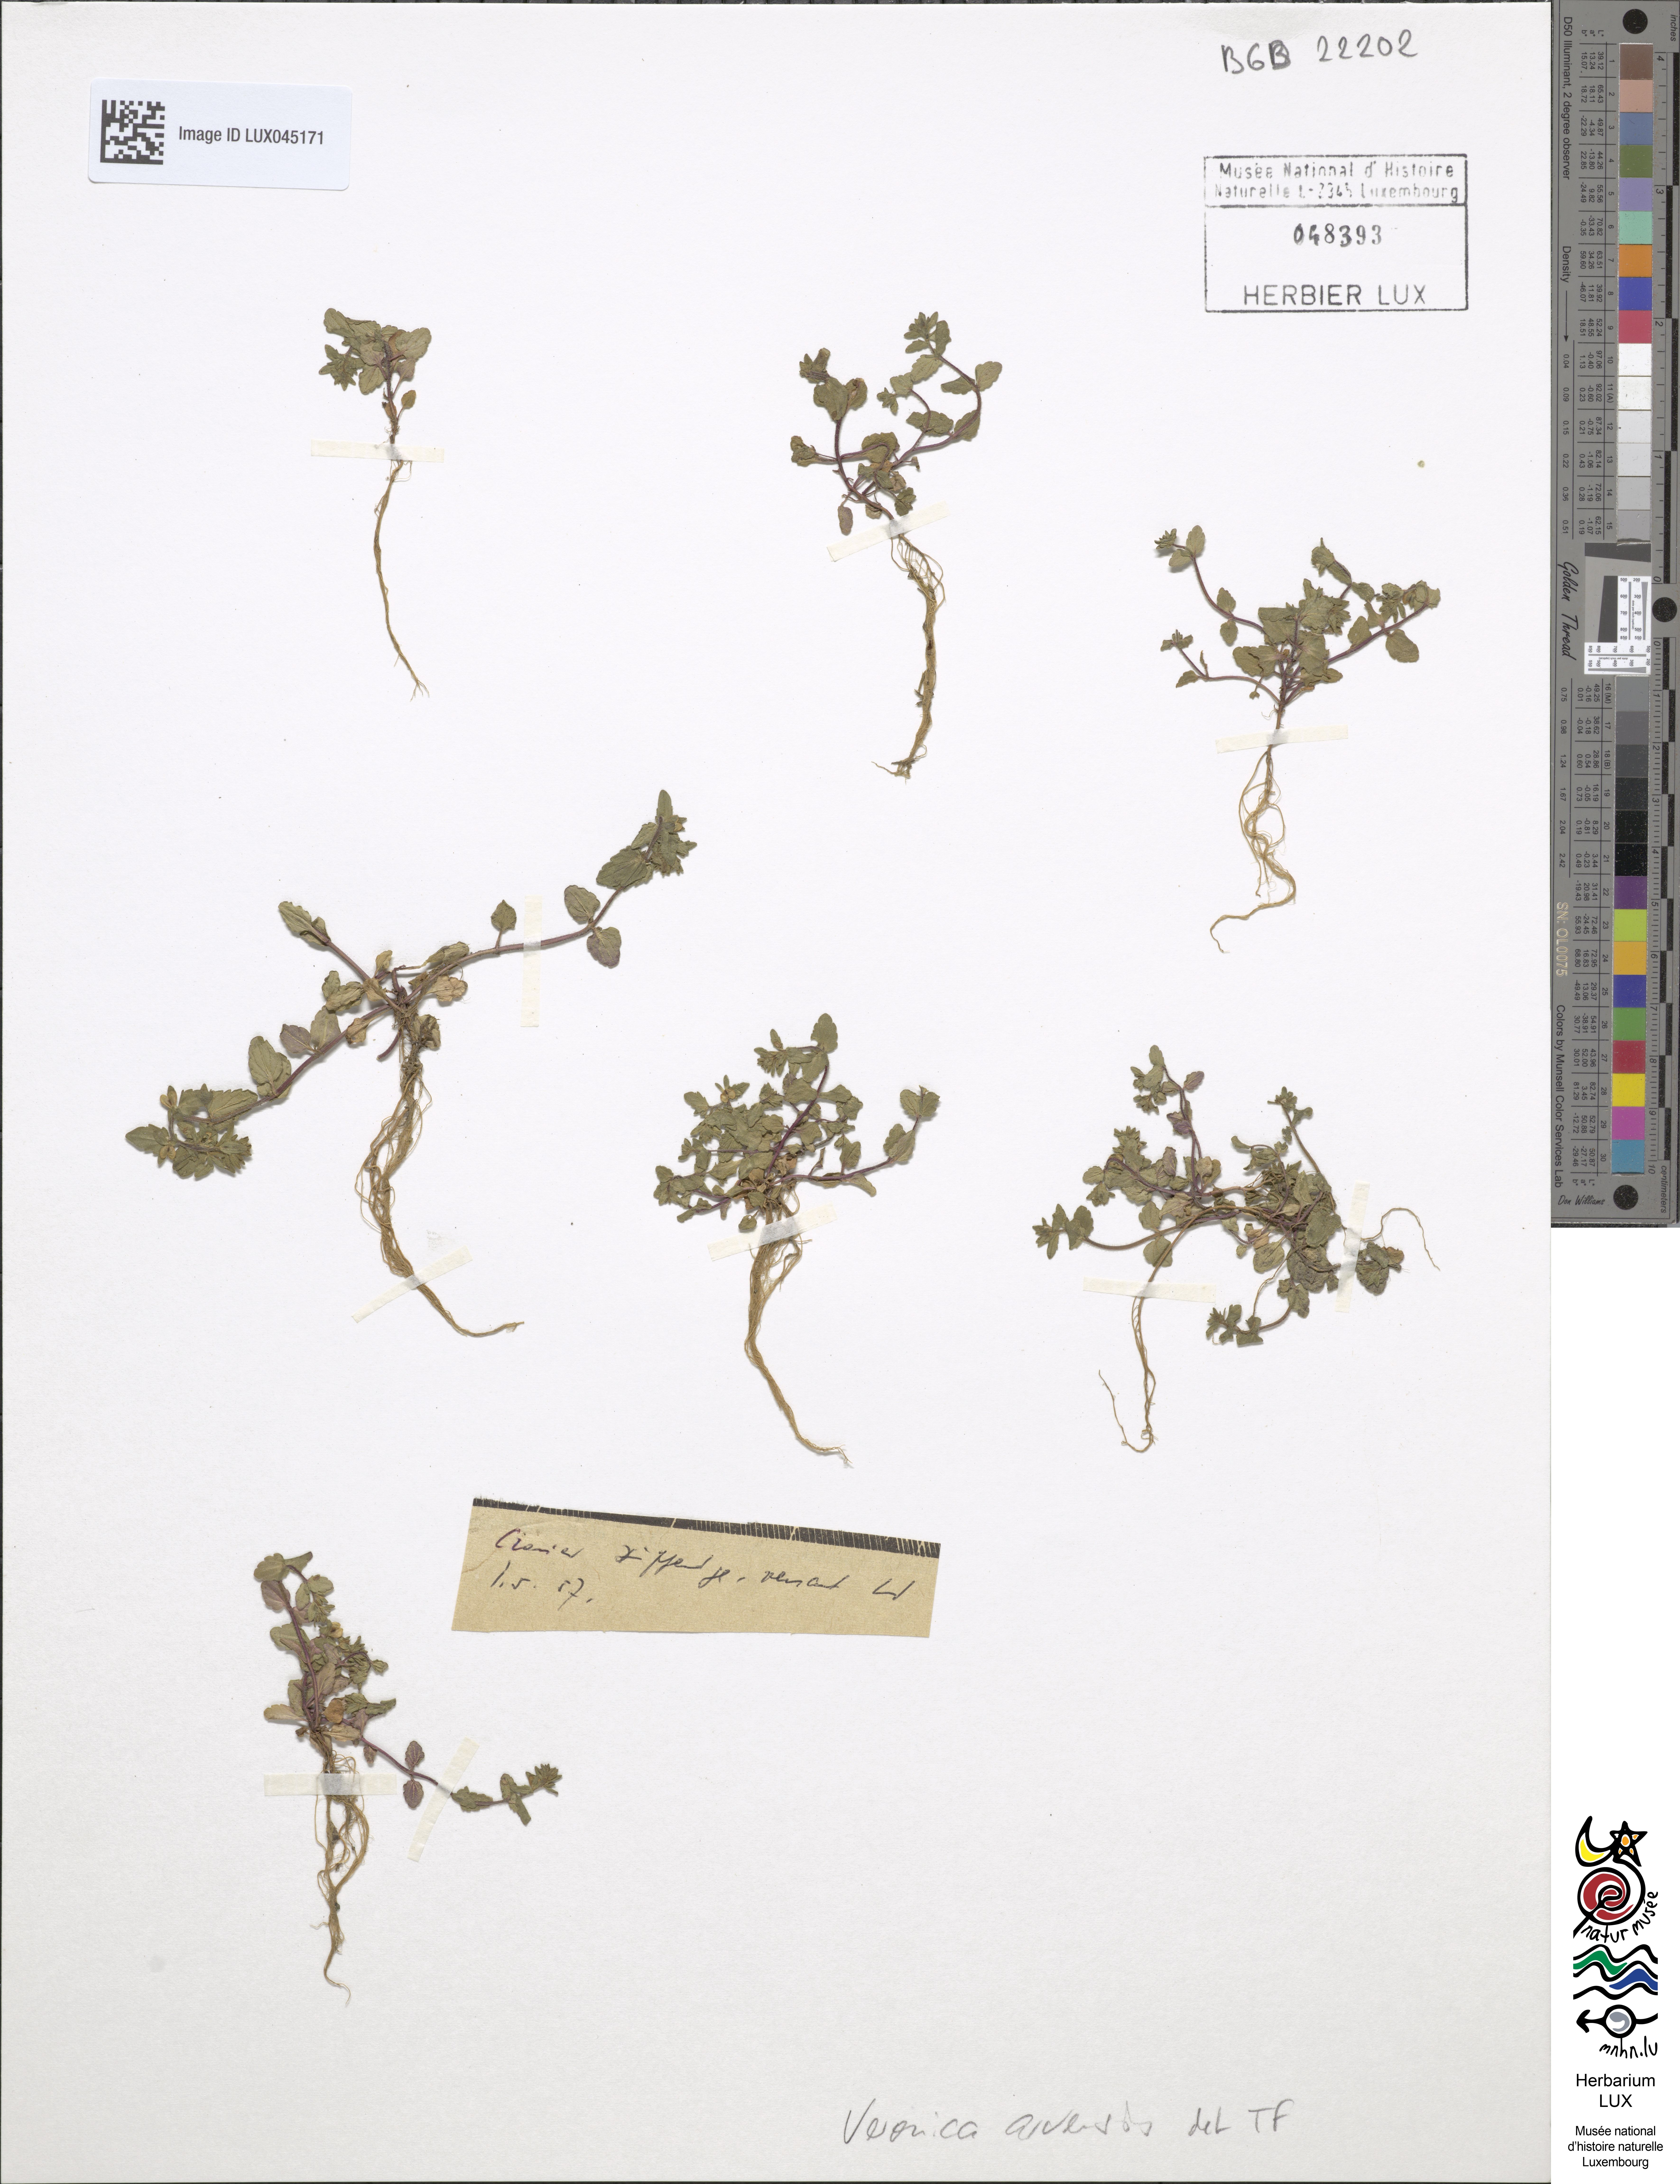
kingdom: Plantae
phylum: Tracheophyta
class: Magnoliopsida
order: Lamiales
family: Plantaginaceae
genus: Veronica
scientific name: Veronica arvensis
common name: Corn speedwell
